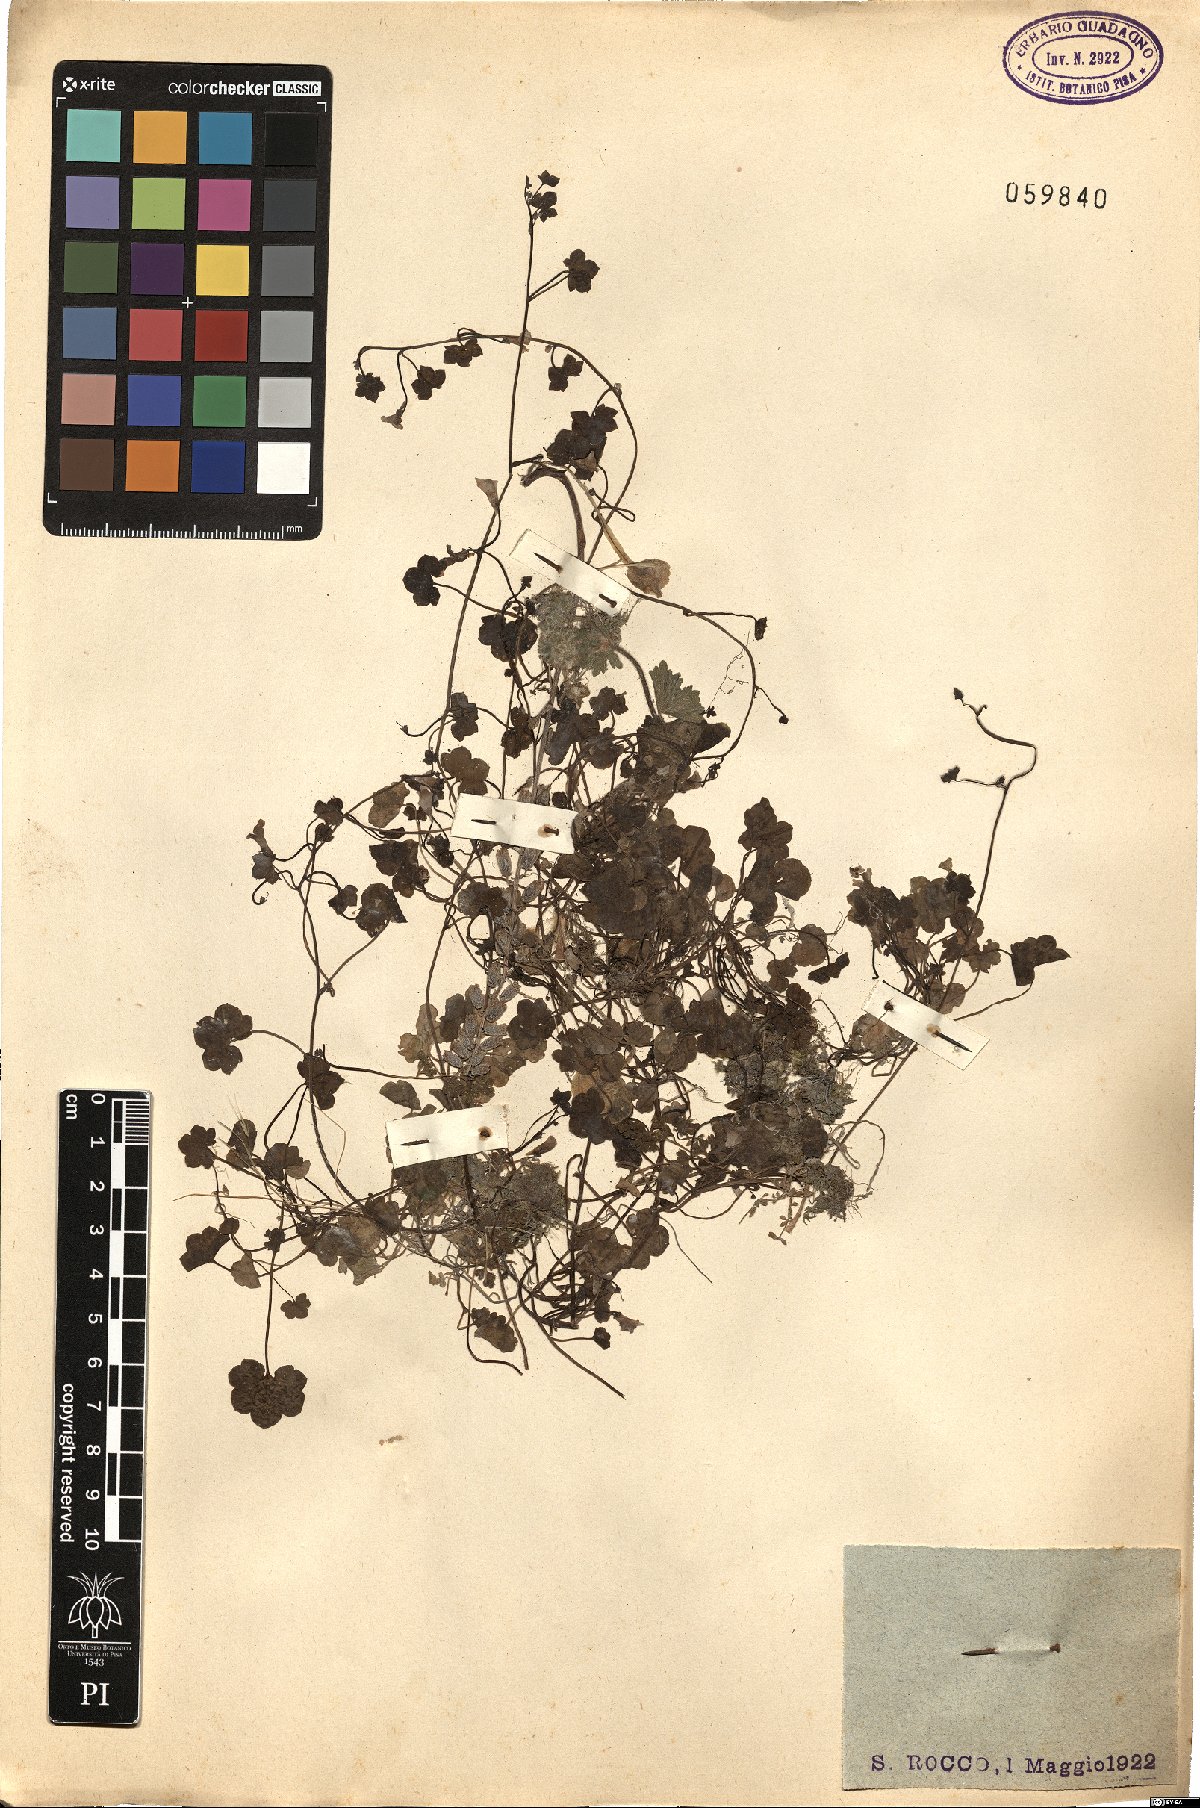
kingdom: Plantae
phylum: Tracheophyta
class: Magnoliopsida
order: Lamiales
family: Plantaginaceae
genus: Cymbalaria
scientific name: Cymbalaria muralis
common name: Ivy-leaved toadflax
